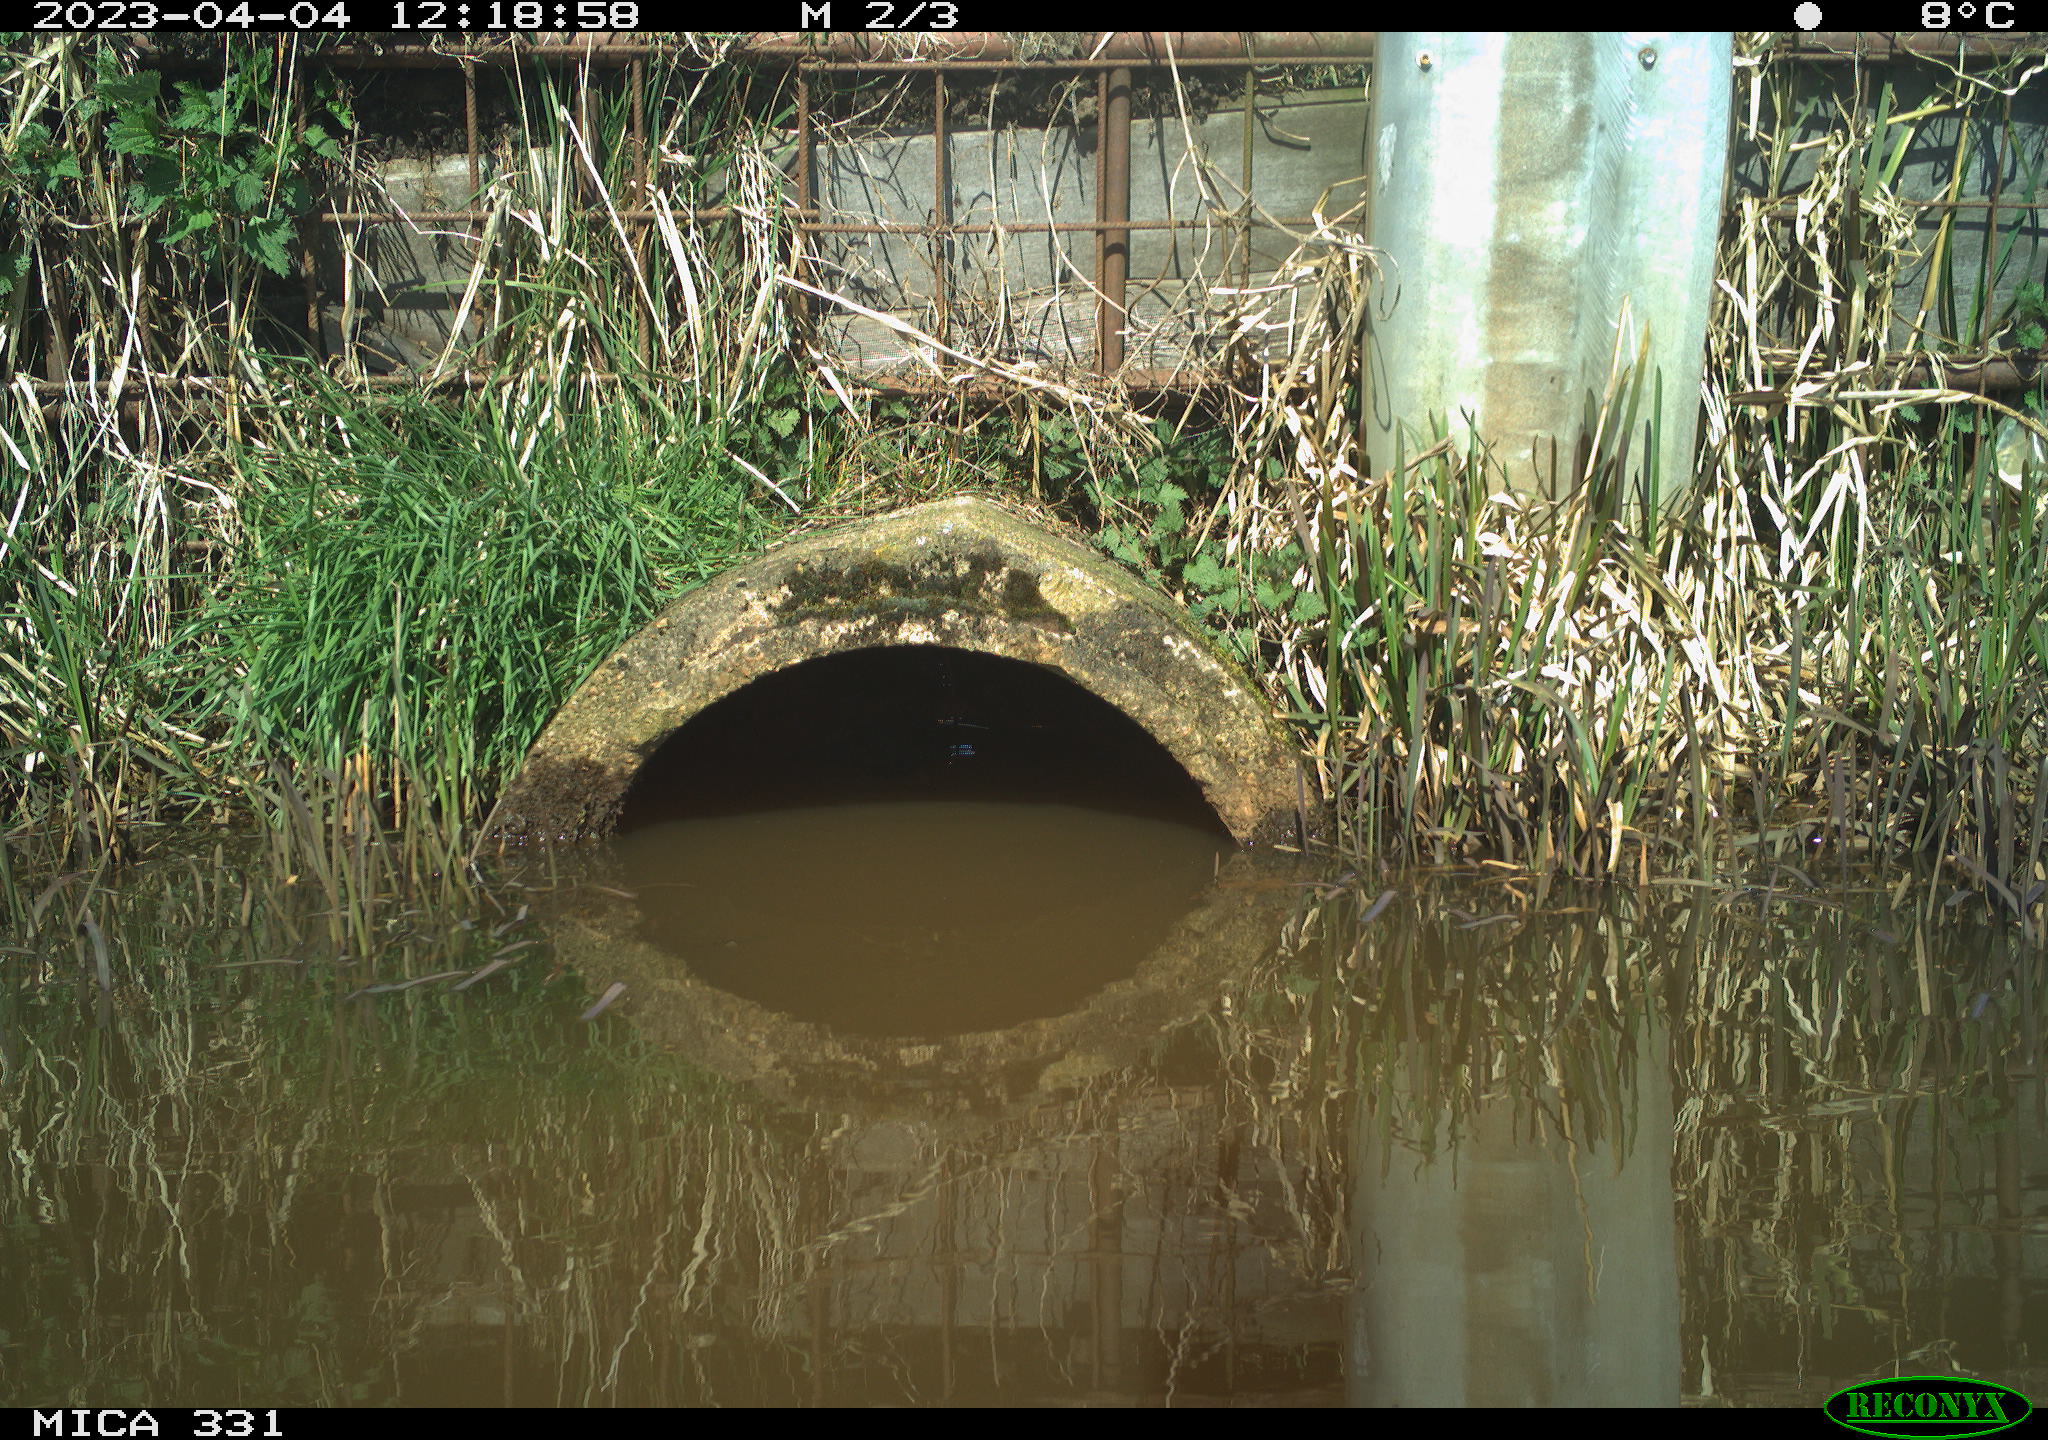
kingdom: Animalia
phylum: Chordata
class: Aves
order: Gruiformes
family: Rallidae
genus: Fulica
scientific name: Fulica atra
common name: Eurasian coot
